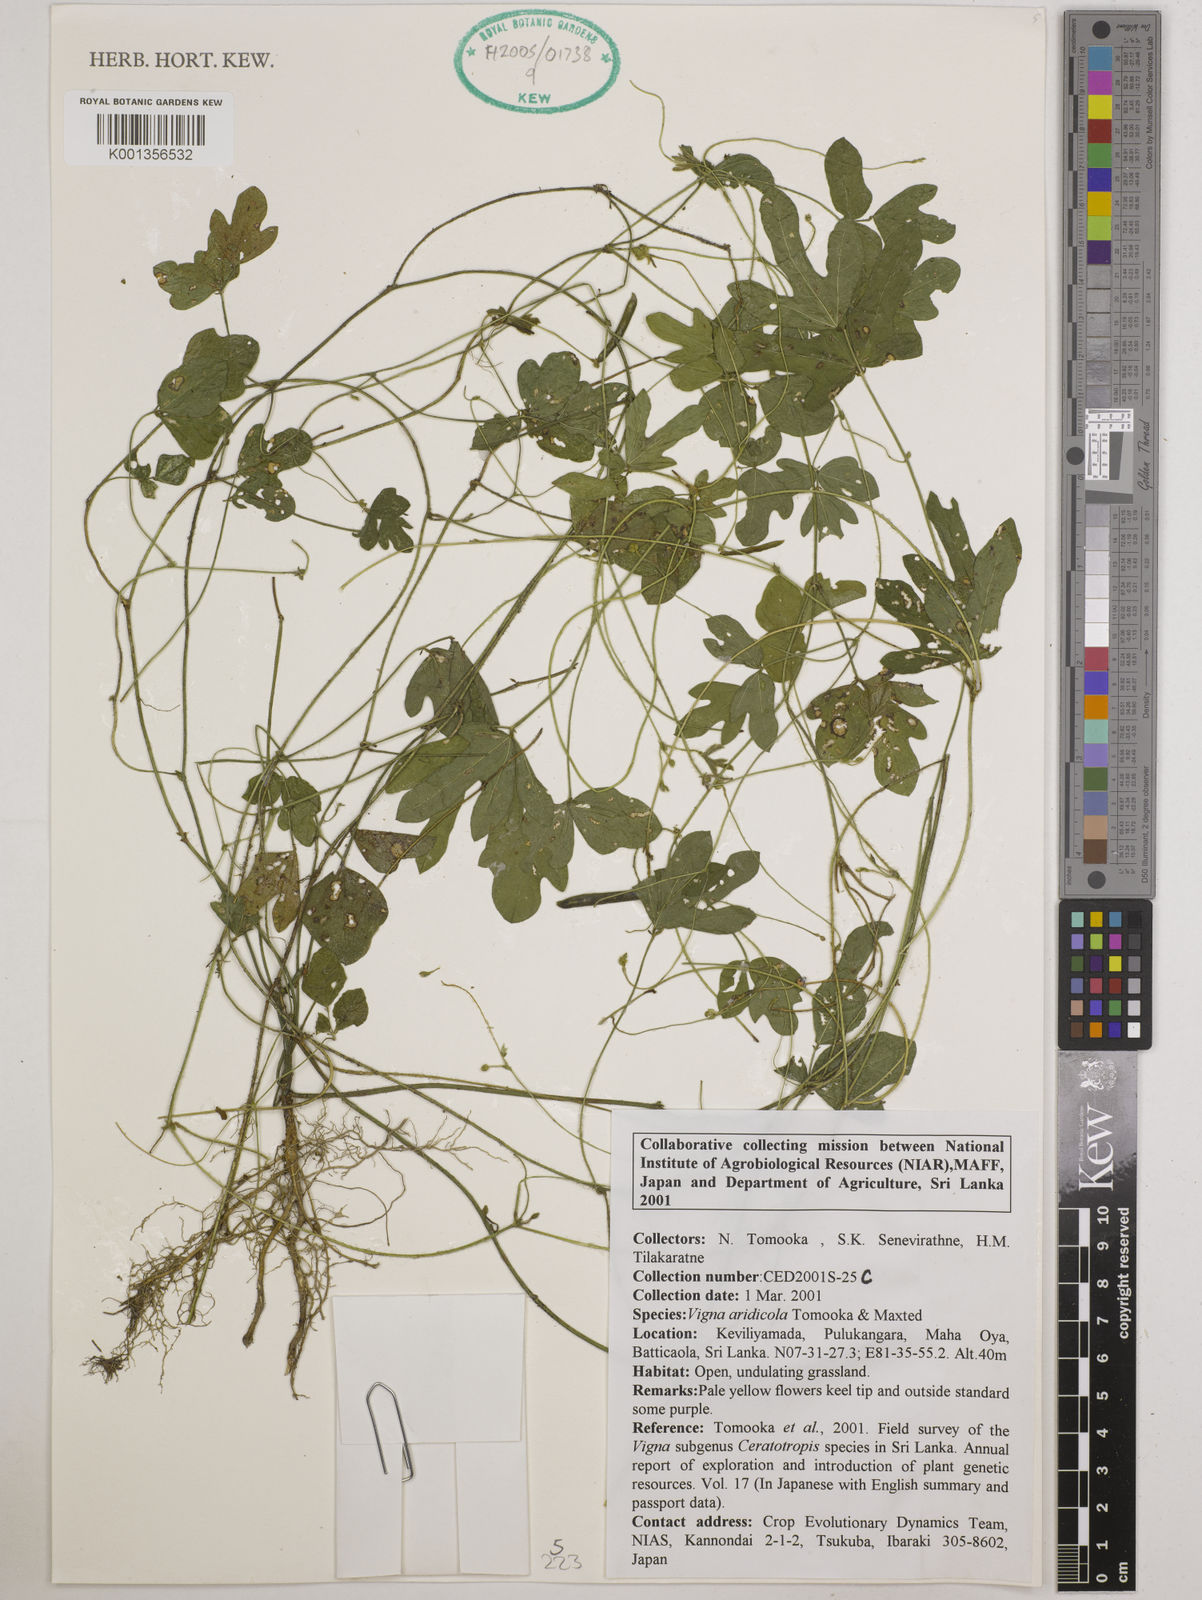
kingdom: Plantae
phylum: Tracheophyta
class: Magnoliopsida
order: Fabales
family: Fabaceae
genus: Vigna
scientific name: Vigna
